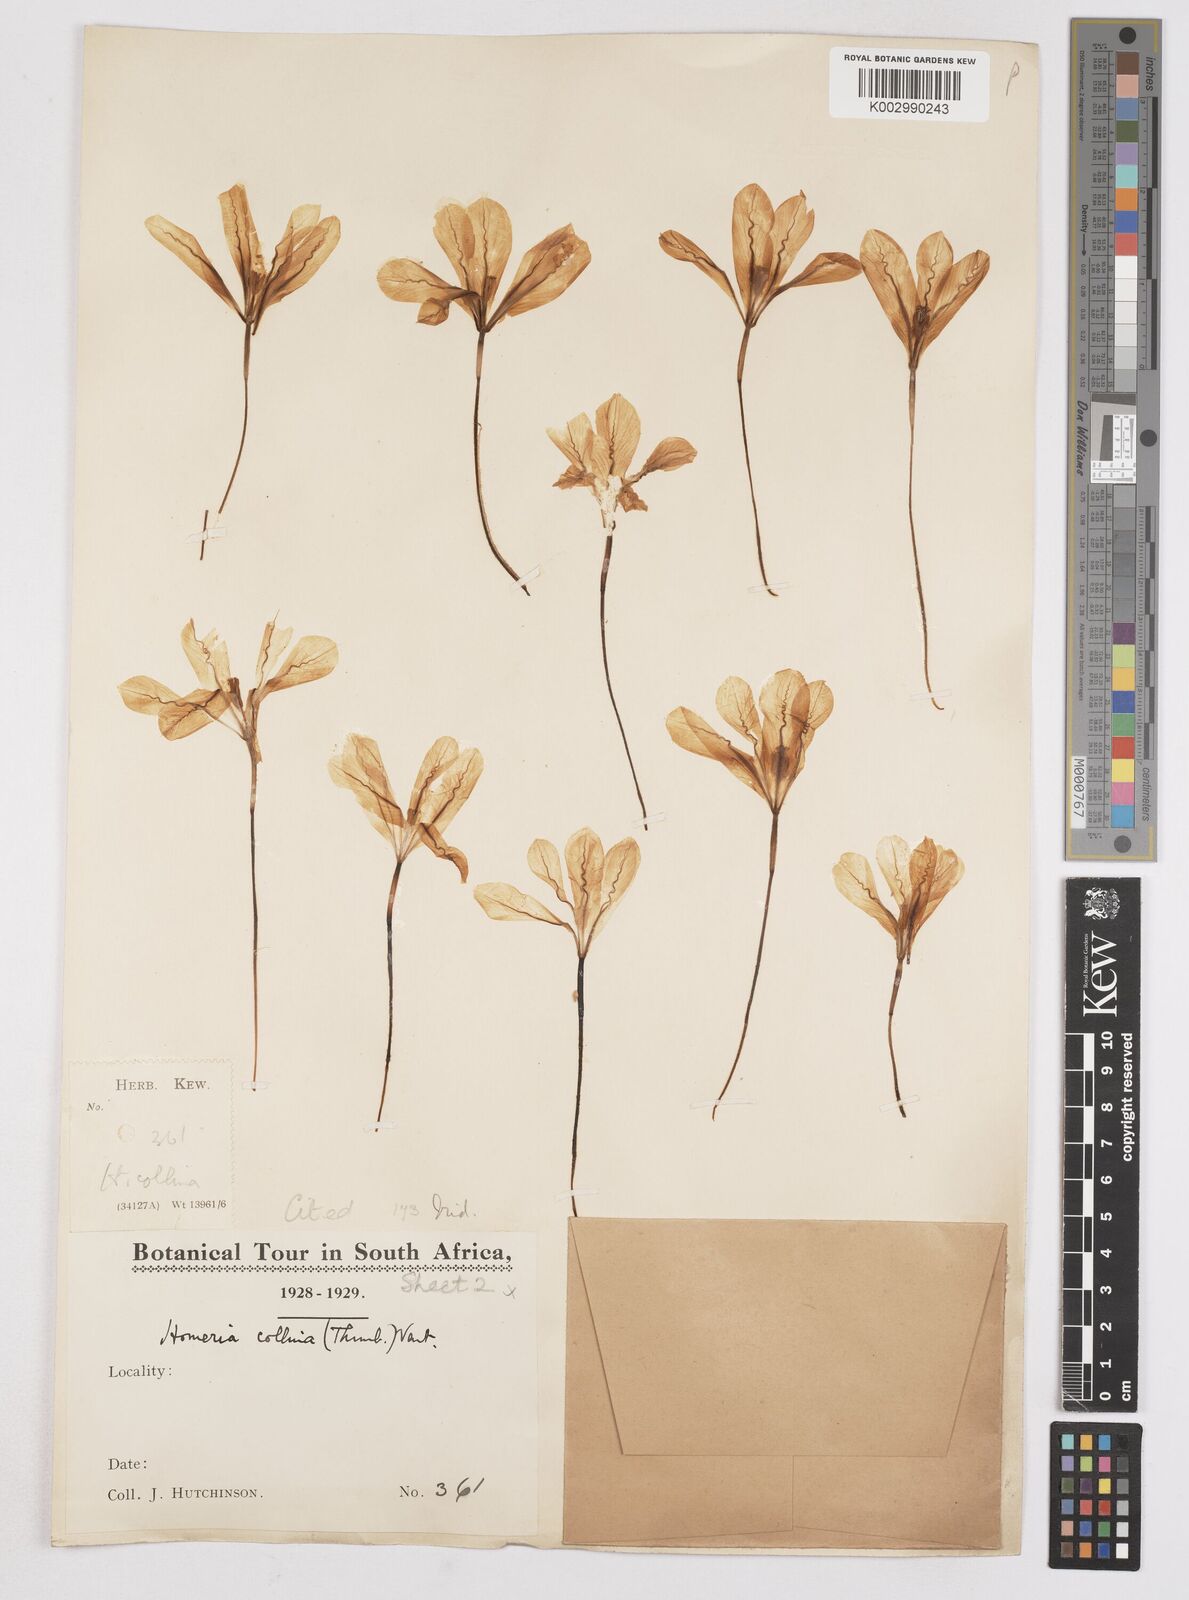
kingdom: Plantae
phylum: Tracheophyta
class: Liliopsida
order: Asparagales
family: Iridaceae
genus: Moraea
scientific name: Moraea miniata
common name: Two-leaf cape-tulip
